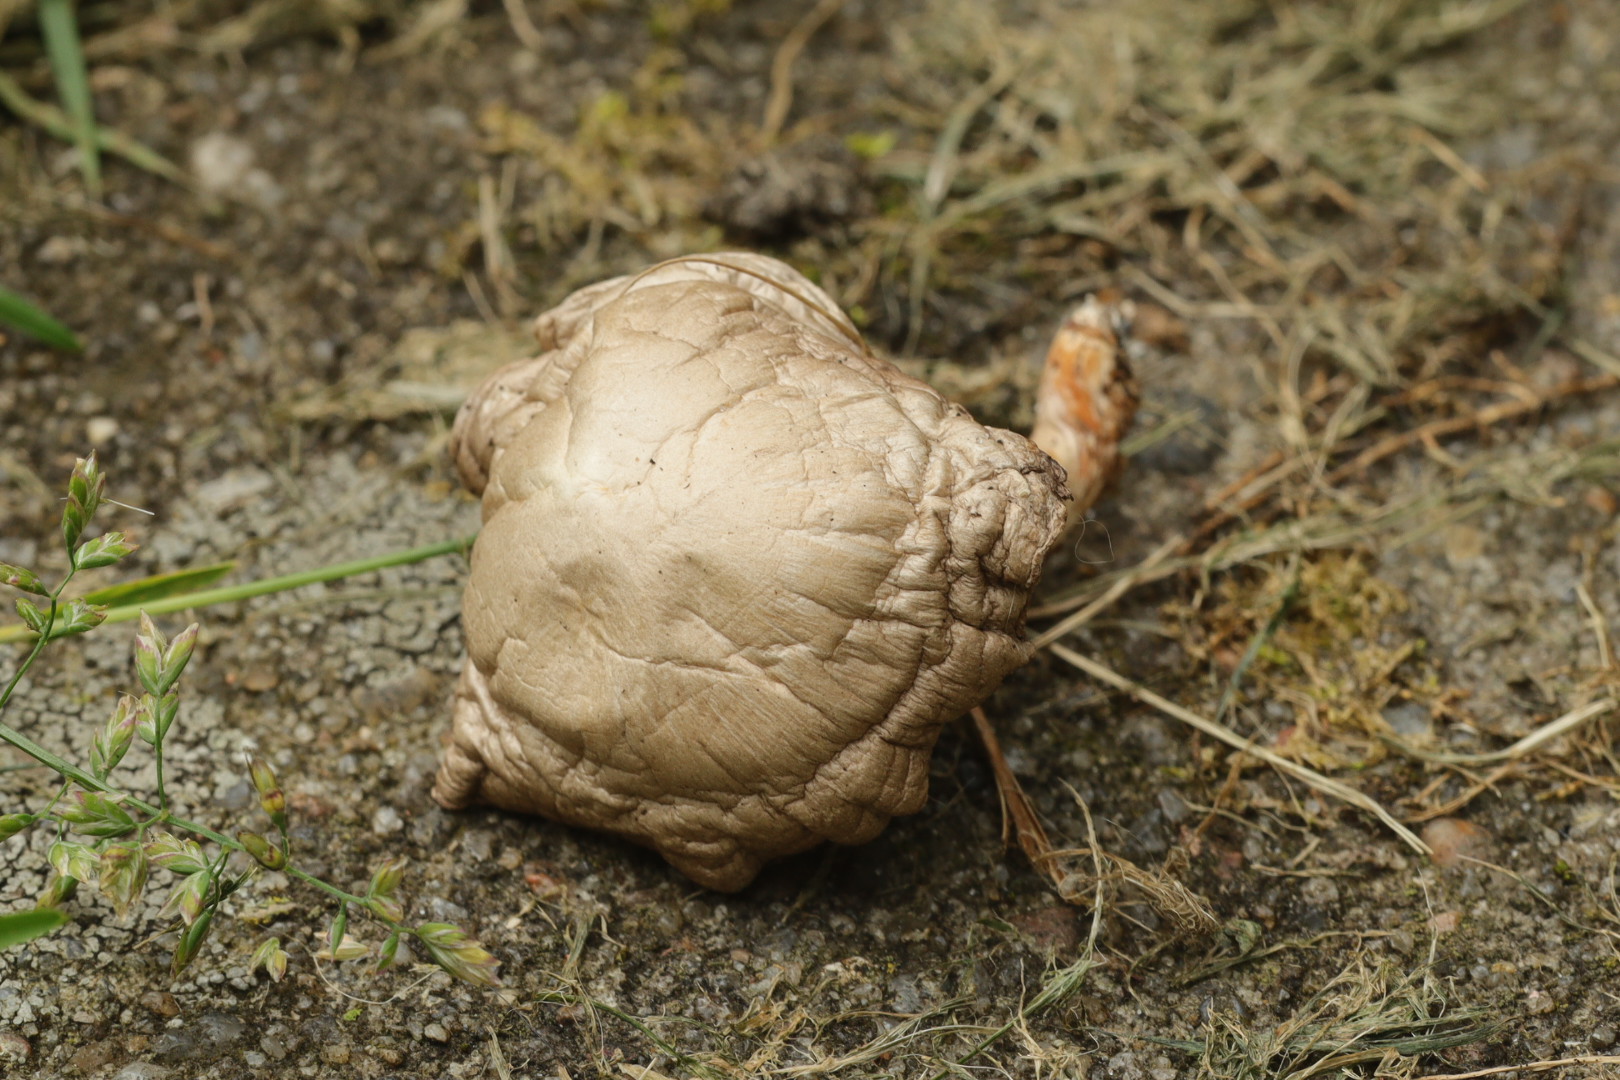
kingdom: Fungi
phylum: Basidiomycota
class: Agaricomycetes
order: Agaricales
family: Agaricaceae
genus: Agaricus
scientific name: Agaricus
